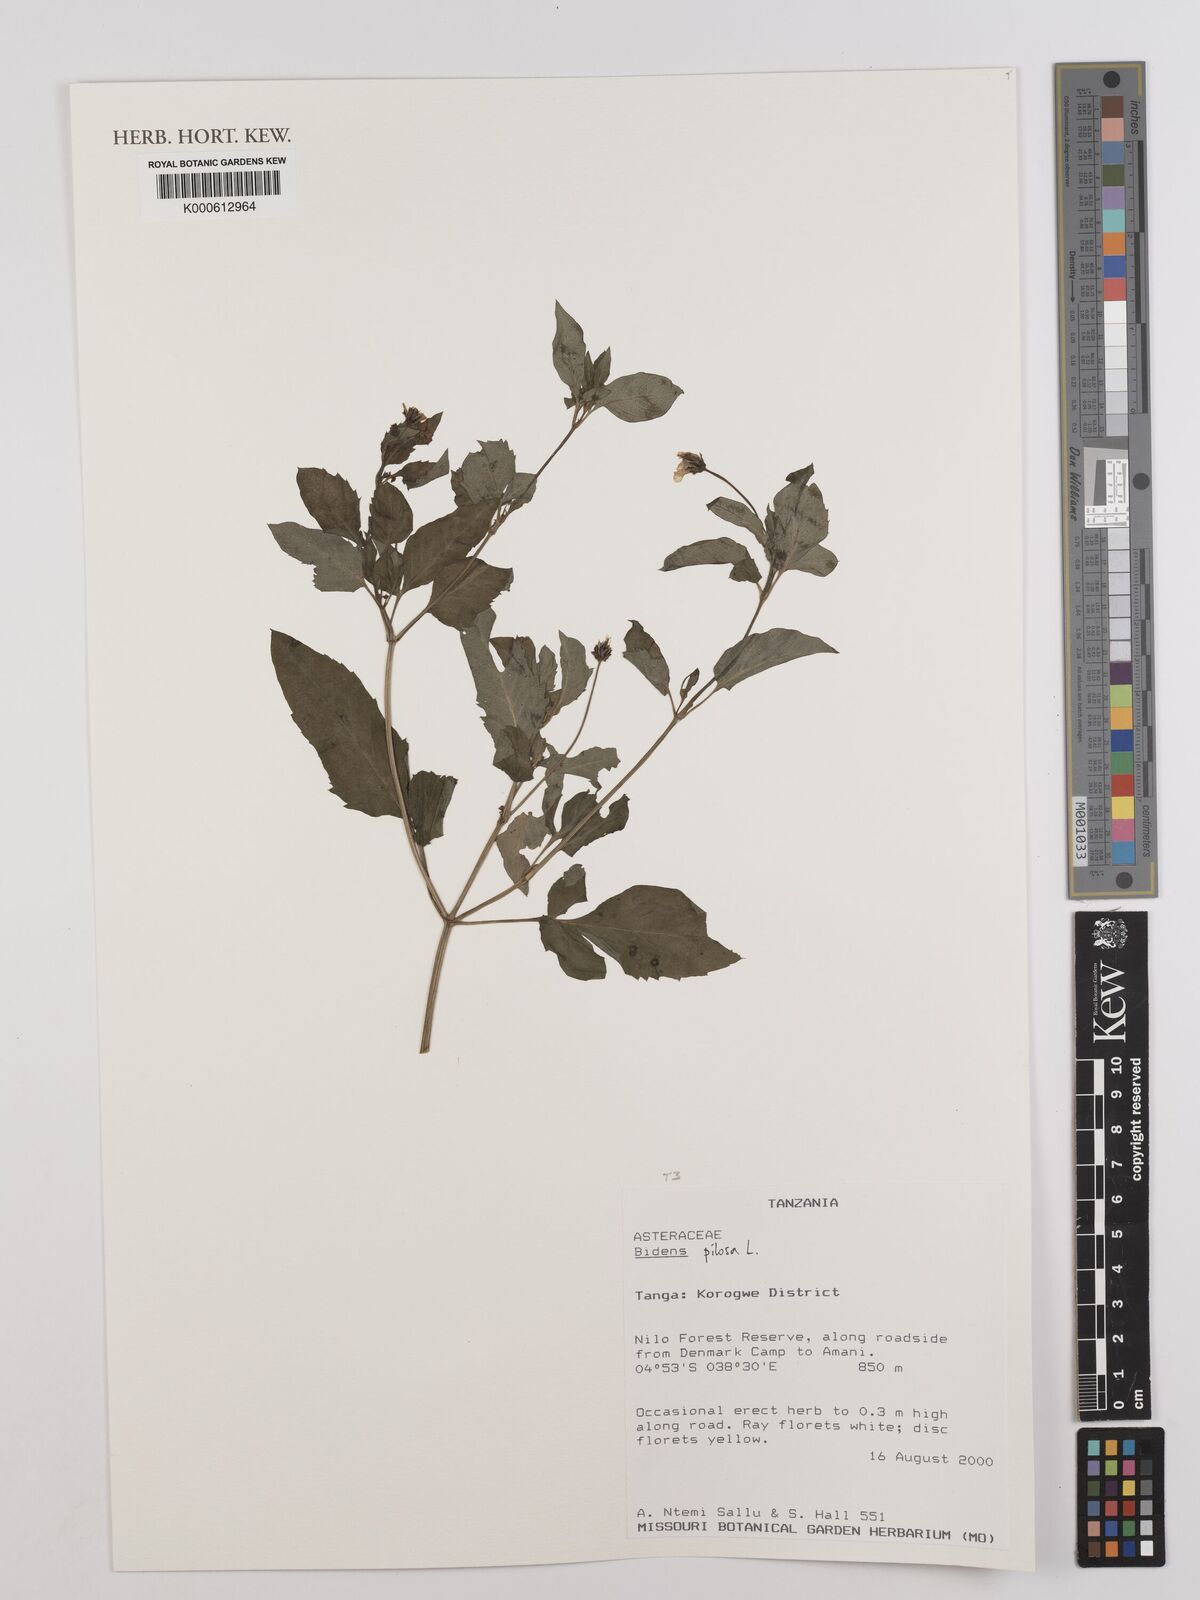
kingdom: Plantae
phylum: Tracheophyta
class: Magnoliopsida
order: Asterales
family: Asteraceae
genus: Bidens
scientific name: Bidens pilosa
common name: Black-jack
